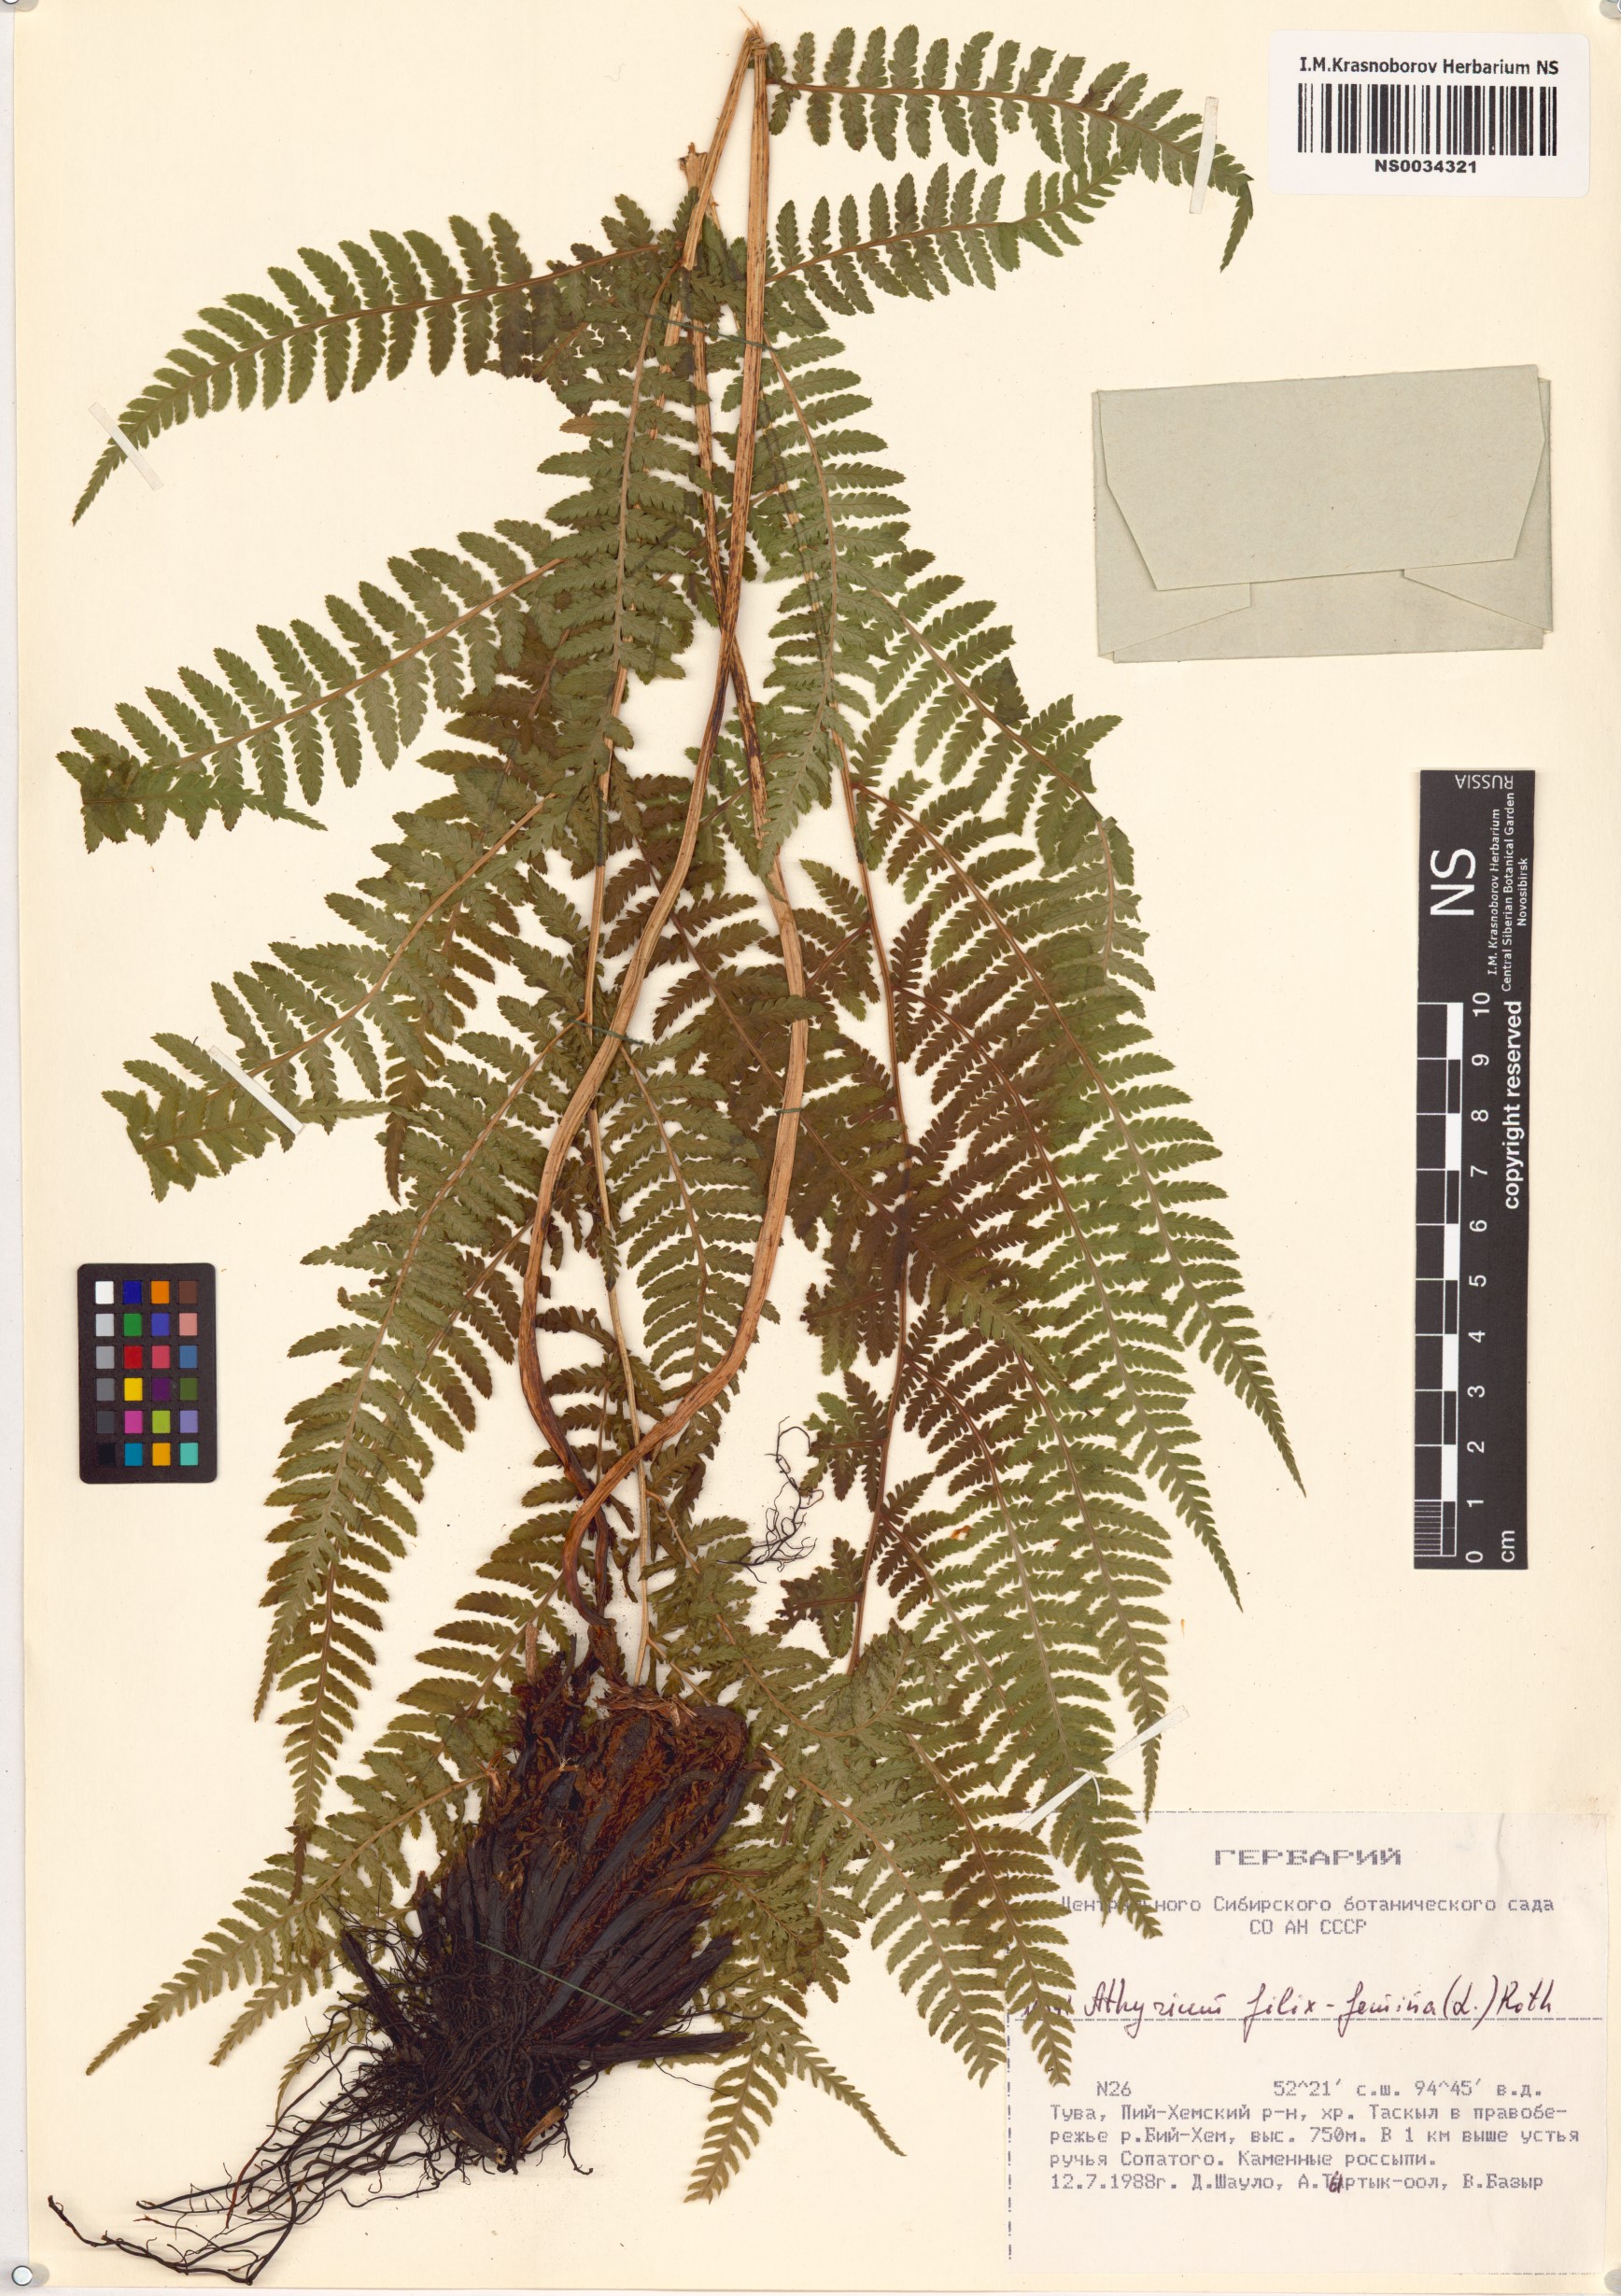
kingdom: Plantae
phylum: Tracheophyta
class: Polypodiopsida
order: Polypodiales
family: Athyriaceae
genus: Athyrium
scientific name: Athyrium filix-femina
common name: Lady fern
